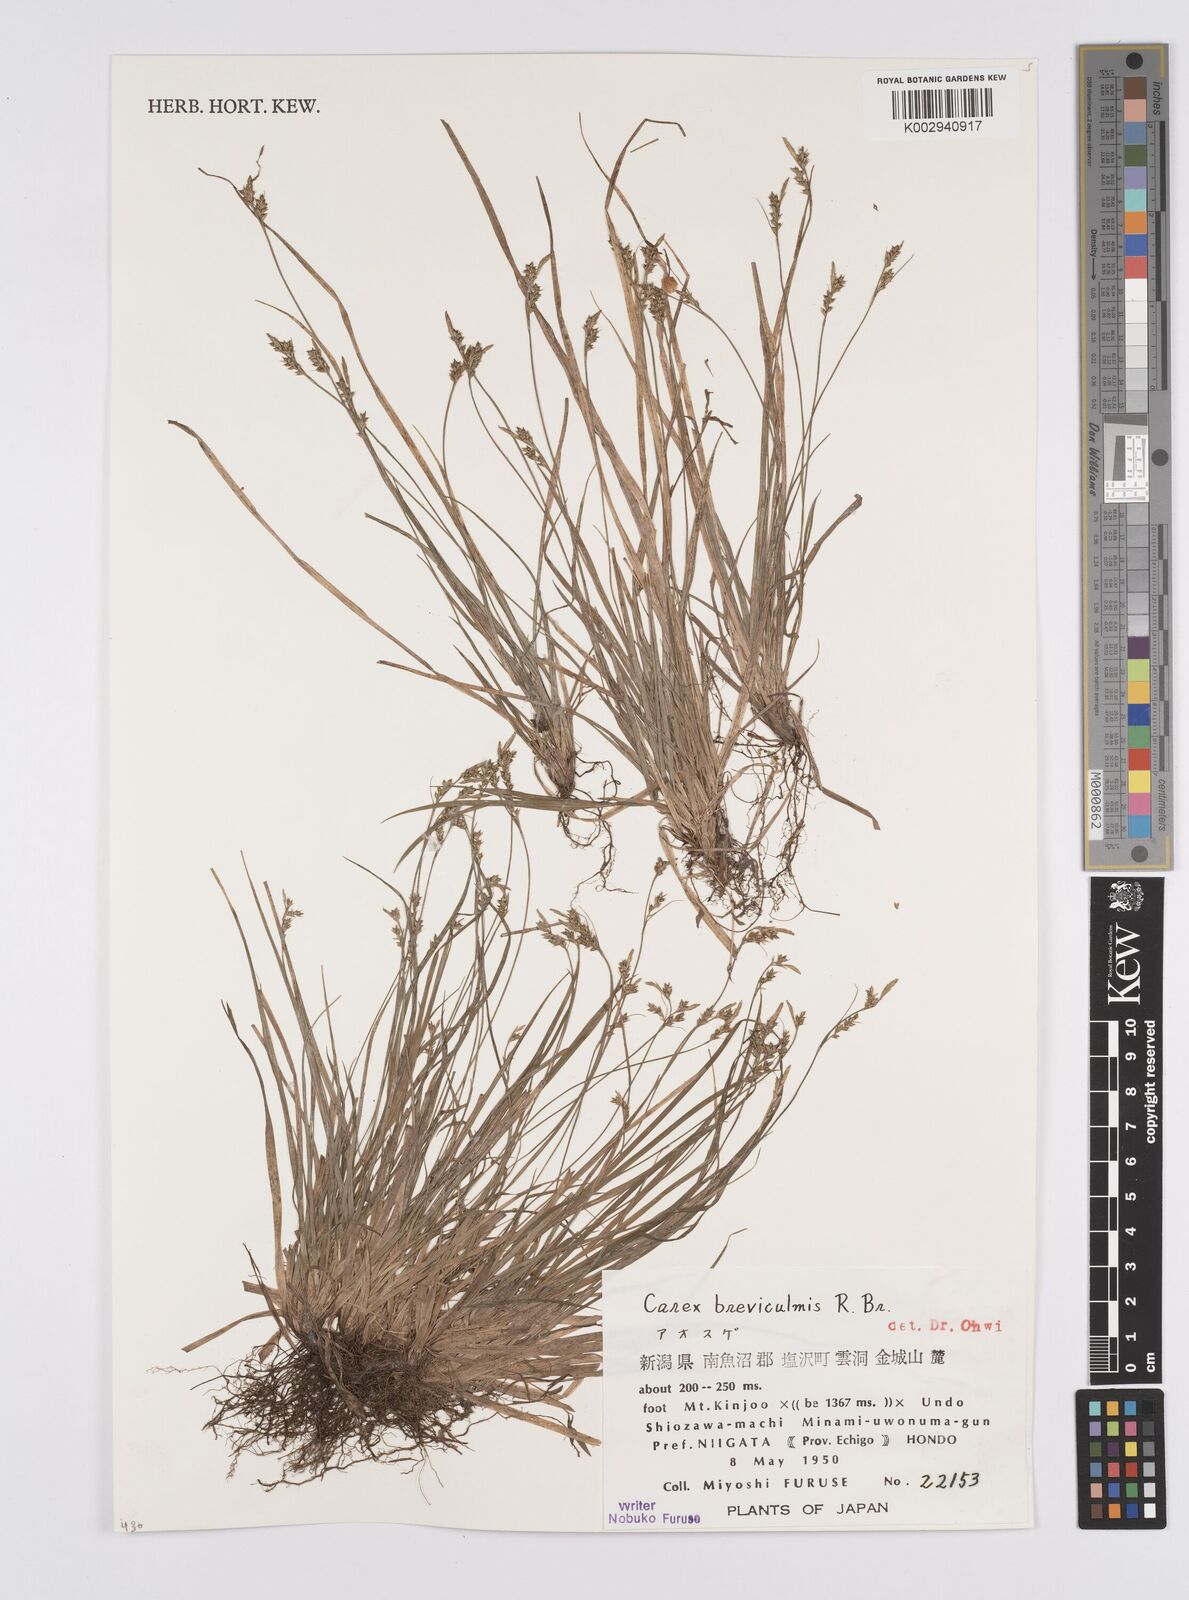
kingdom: Plantae
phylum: Tracheophyta
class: Liliopsida
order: Poales
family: Cyperaceae
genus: Carex
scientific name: Carex breviculmis
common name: Asian shortstem sedge
